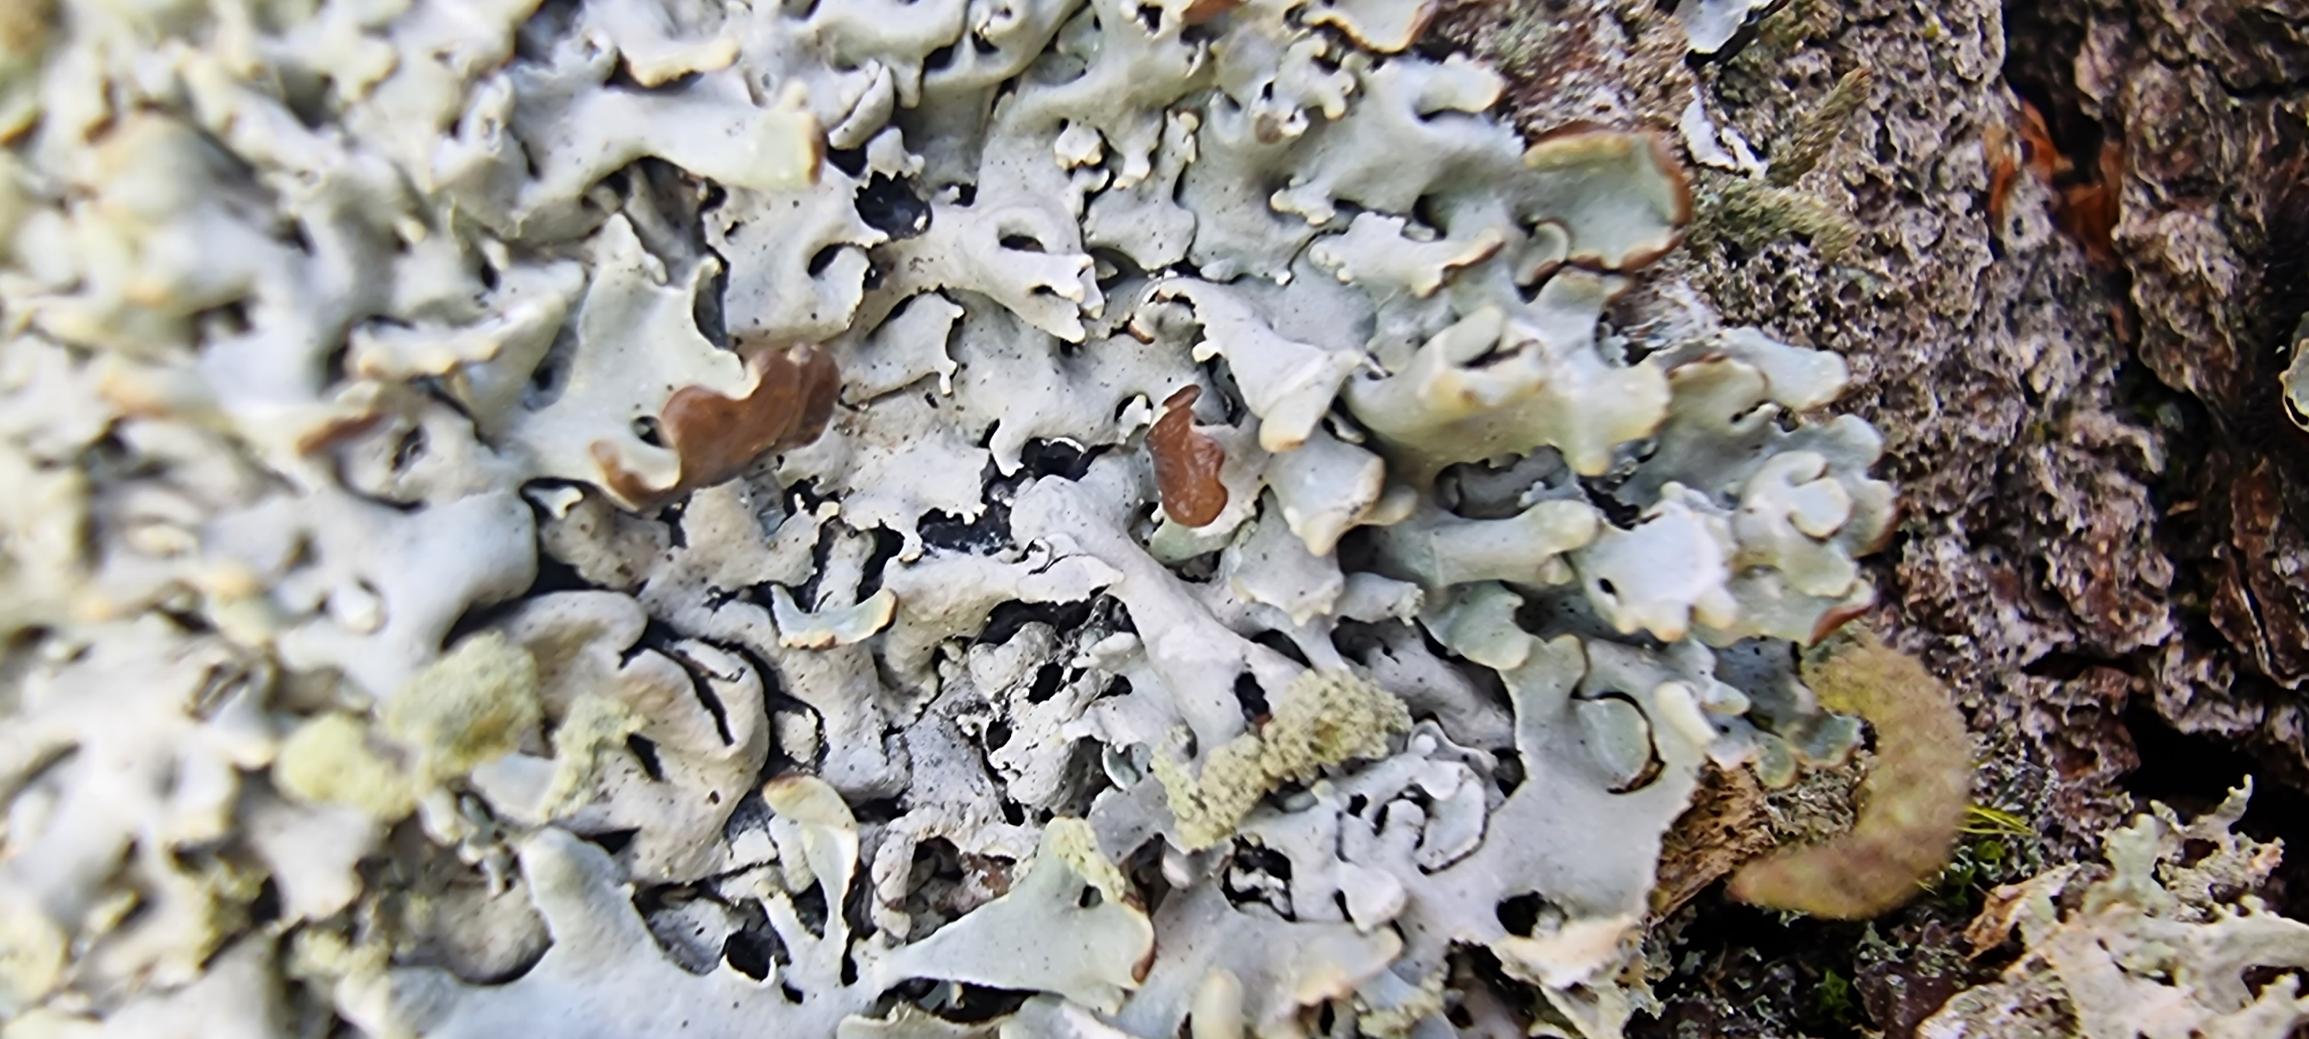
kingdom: Fungi
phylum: Ascomycota
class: Lecanoromycetes
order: Lecanorales
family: Parmeliaceae
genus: Hypogymnia
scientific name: Hypogymnia physodes
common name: Almindelig kvistlav
